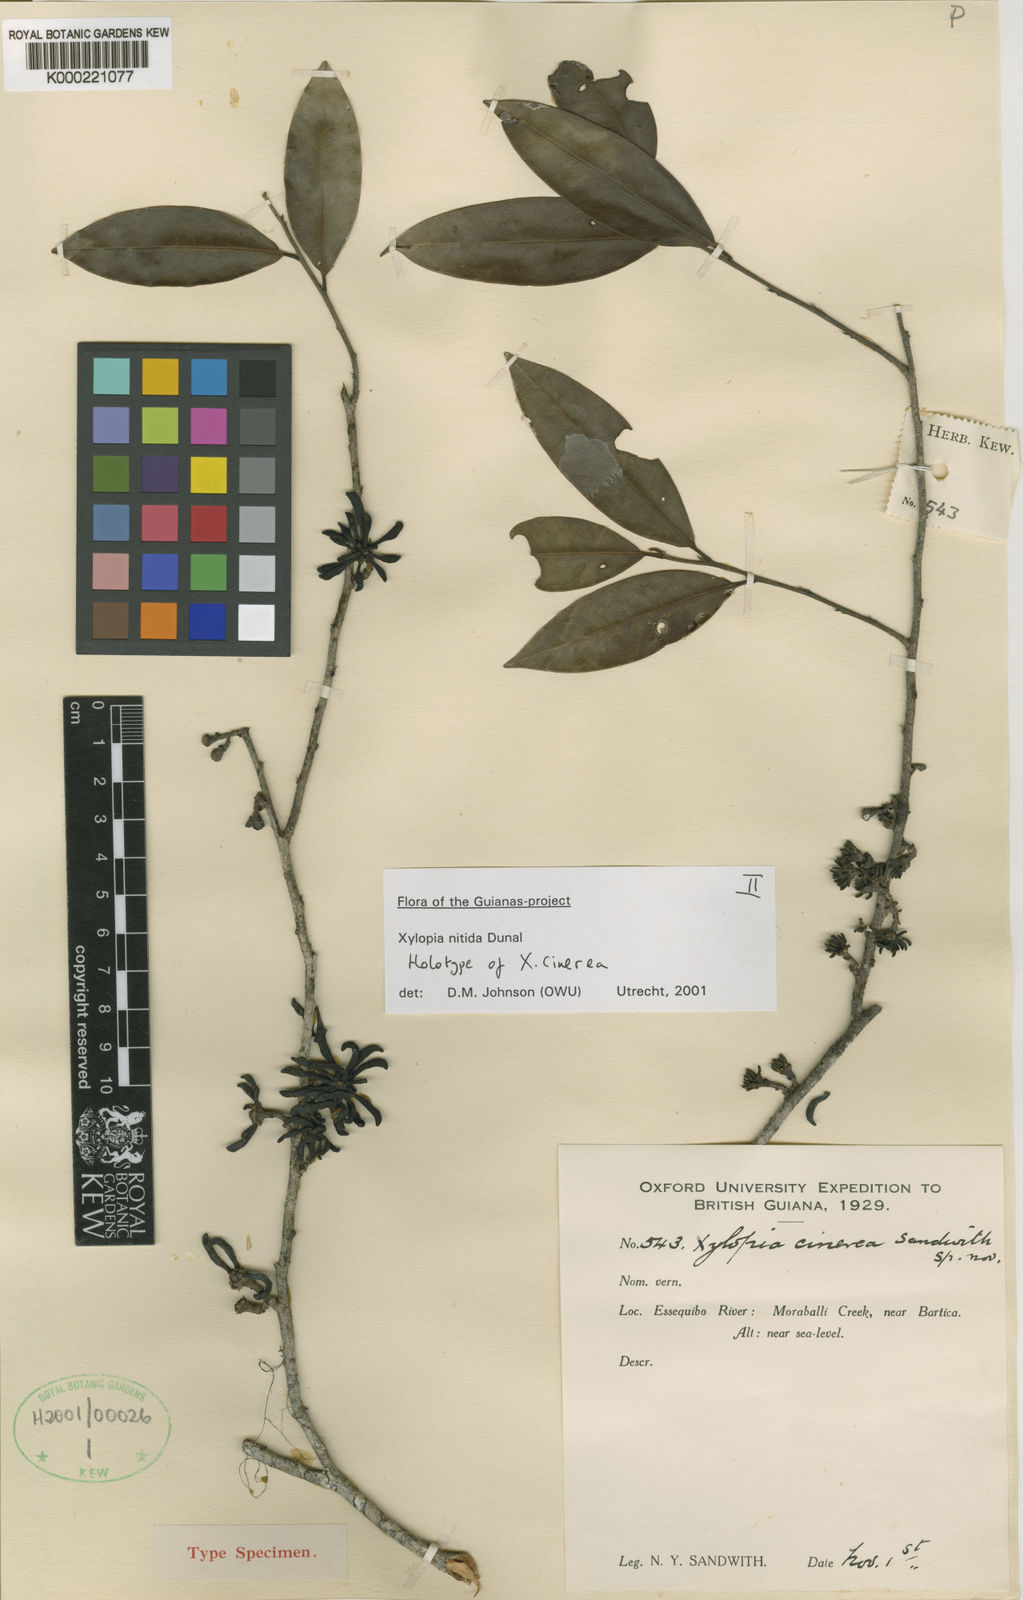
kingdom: Plantae
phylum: Tracheophyta
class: Magnoliopsida
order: Magnoliales
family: Annonaceae
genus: Xylopia
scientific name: Xylopia nitida
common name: White kuyama
